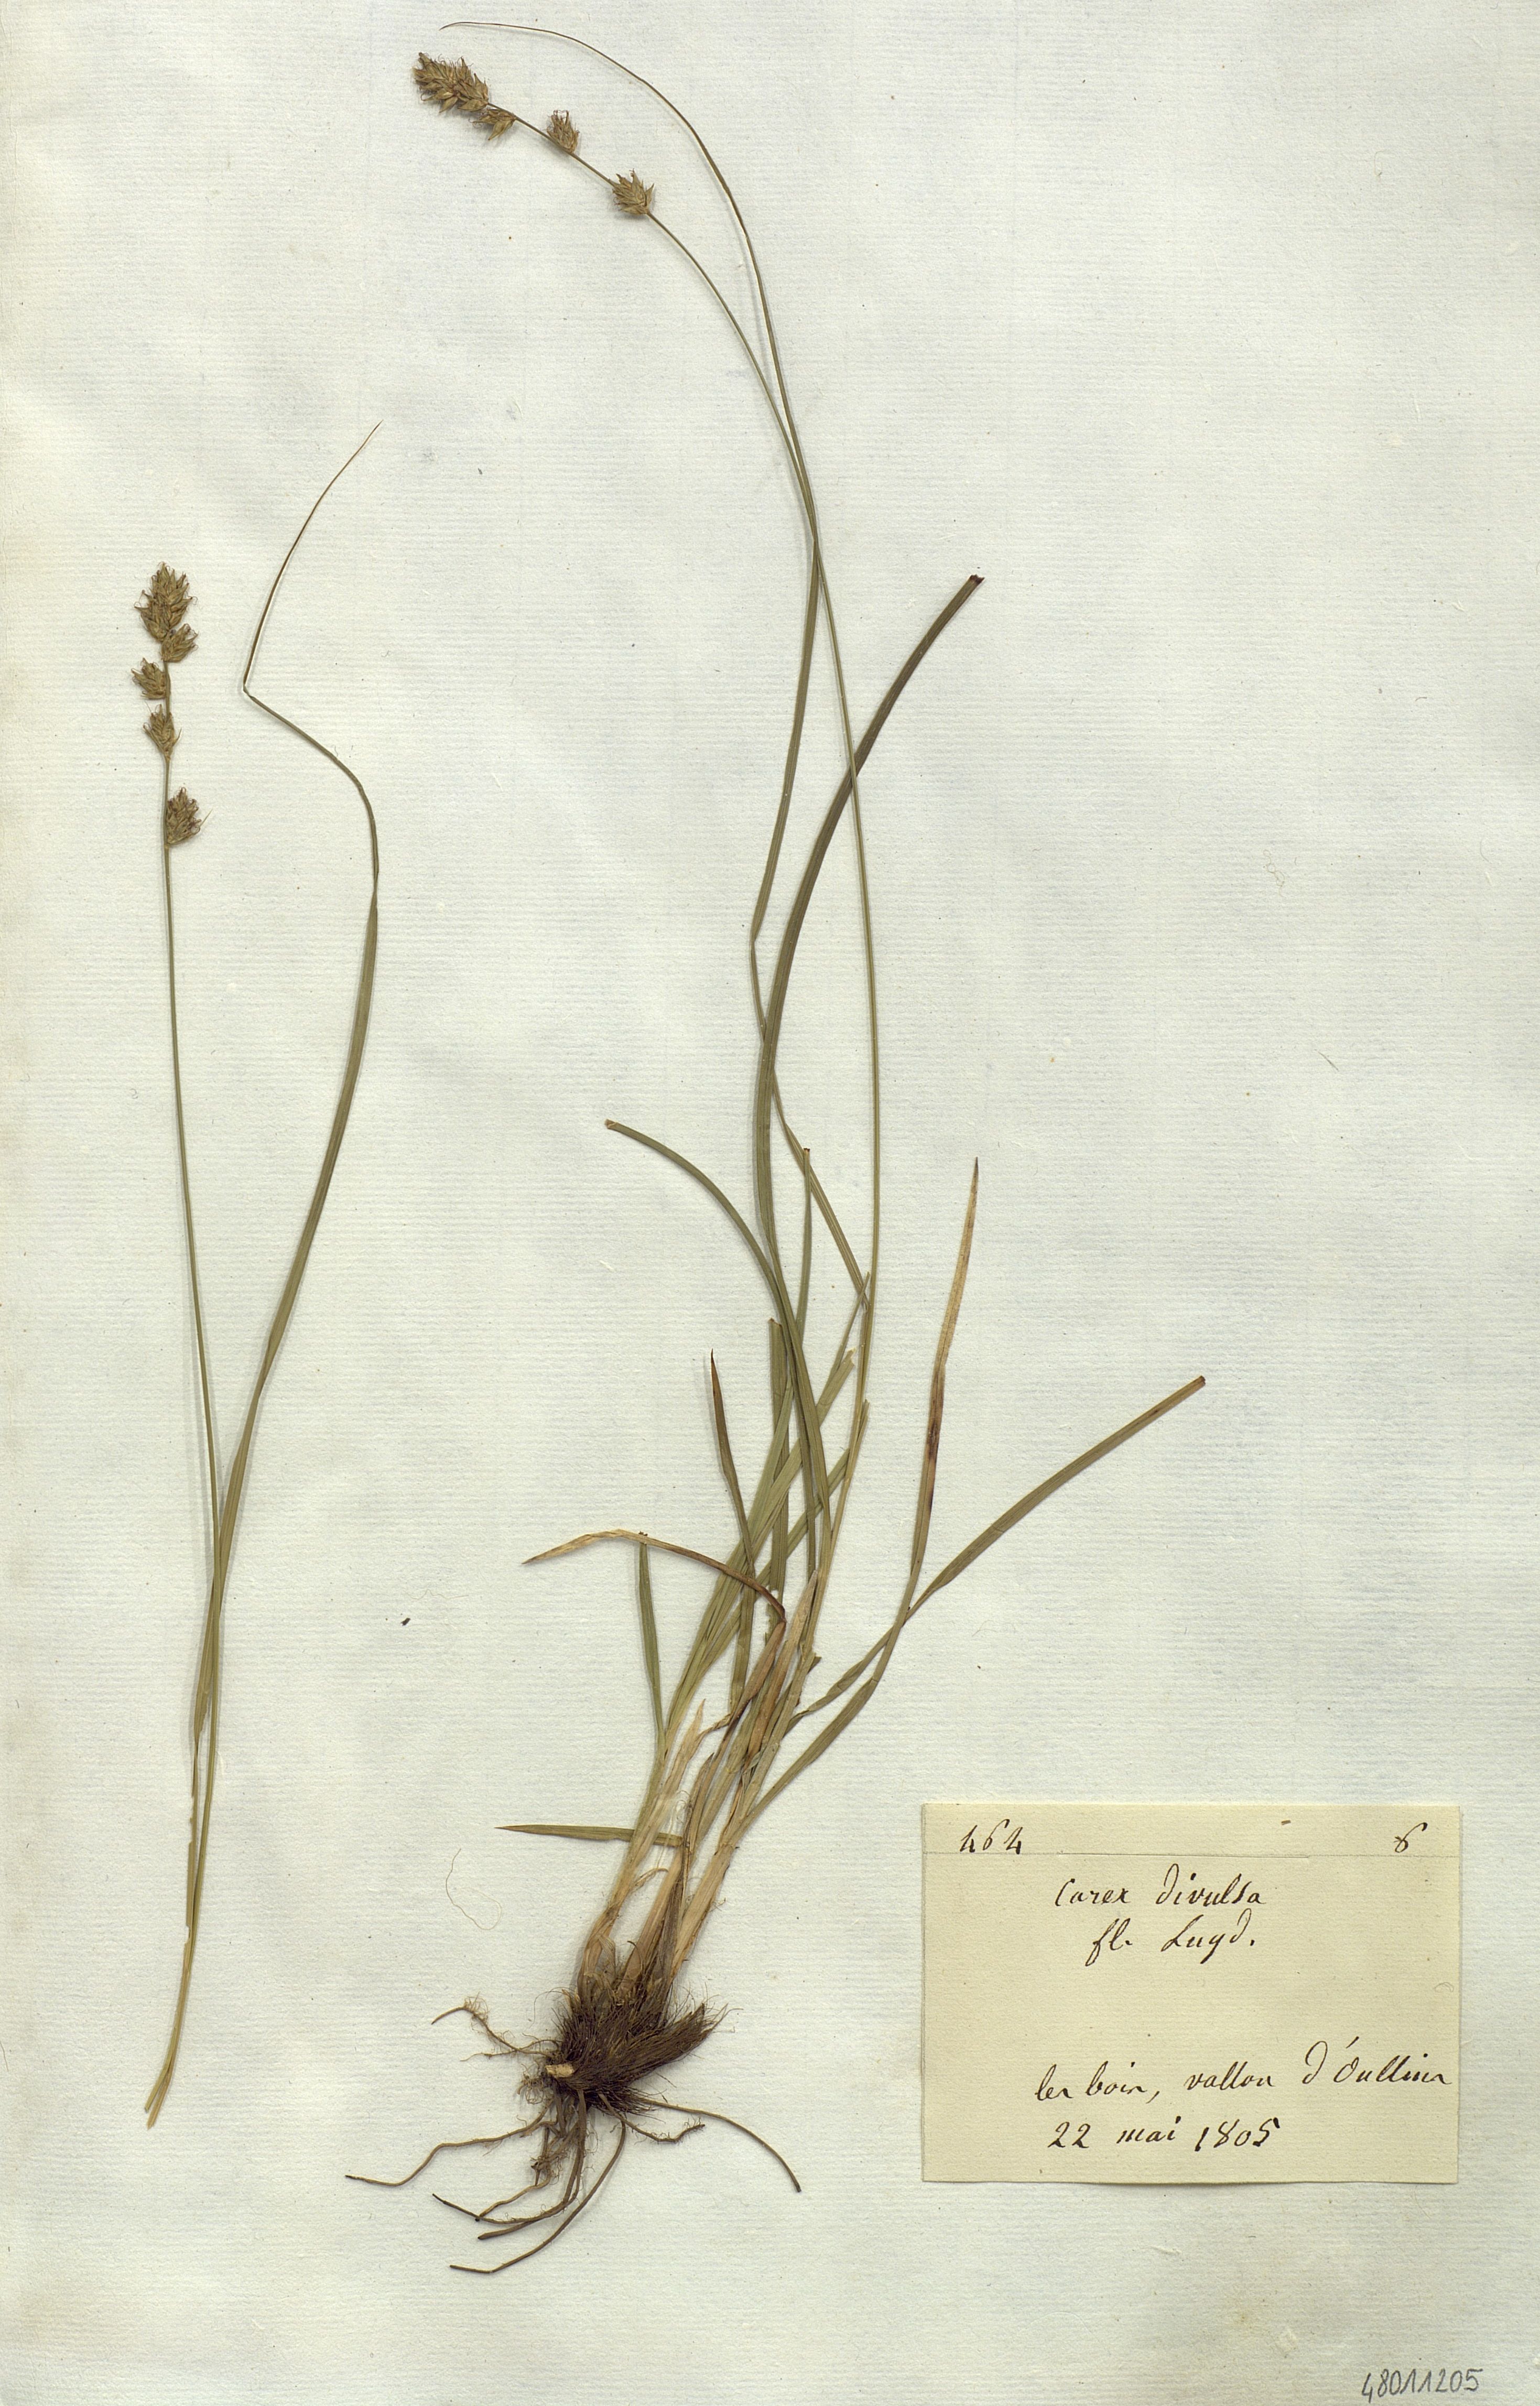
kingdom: Plantae
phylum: Tracheophyta
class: Liliopsida
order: Poales
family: Cyperaceae
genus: Carex
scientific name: Carex divulsa
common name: Grassland sedge
